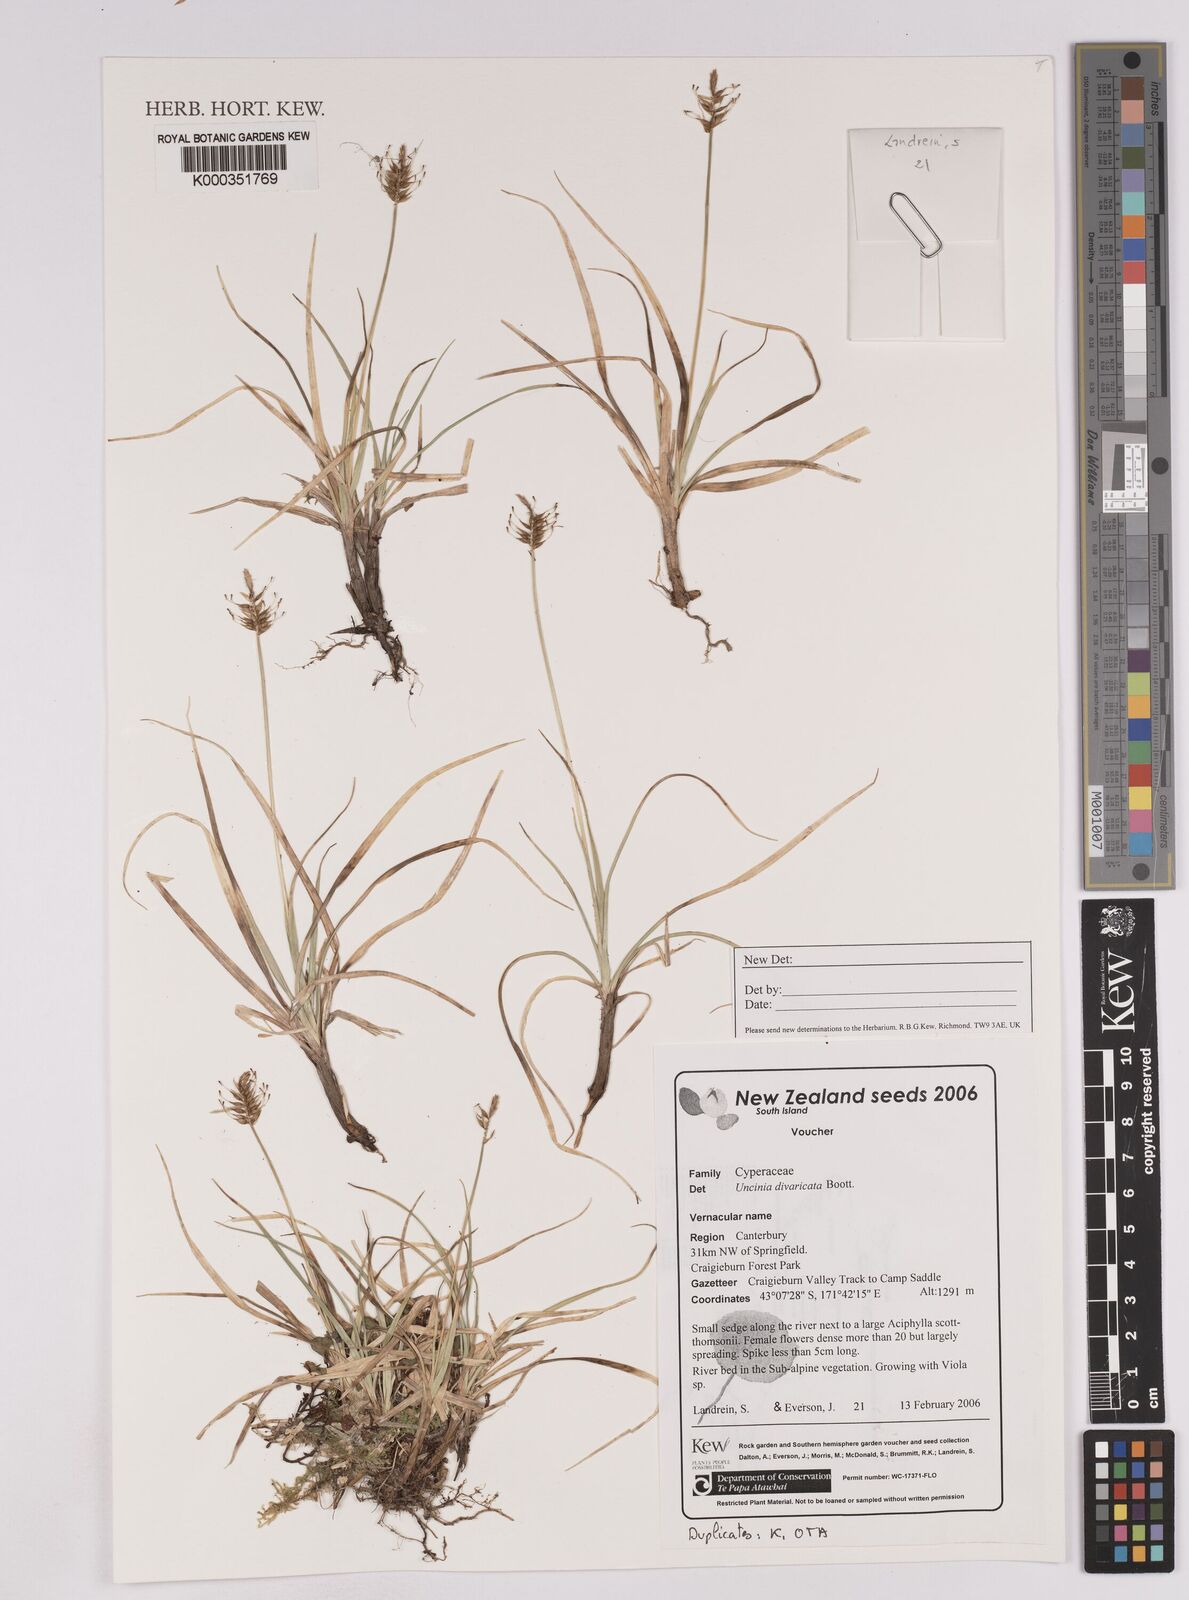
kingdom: Plantae
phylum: Tracheophyta
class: Liliopsida
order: Poales
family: Cyperaceae
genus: Carex
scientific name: Carex edura
